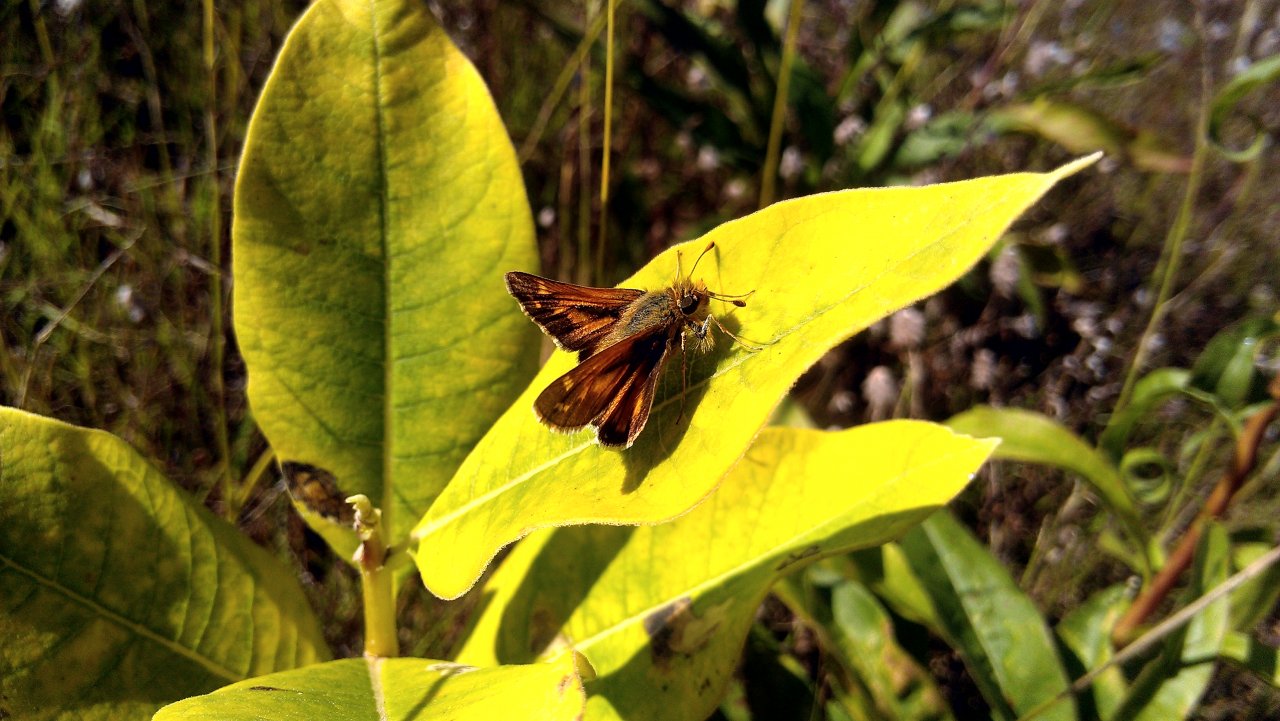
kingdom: Animalia
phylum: Arthropoda
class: Insecta
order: Lepidoptera
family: Hesperiidae
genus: Hesperia
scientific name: Hesperia comma
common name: Common Branded Skipper
